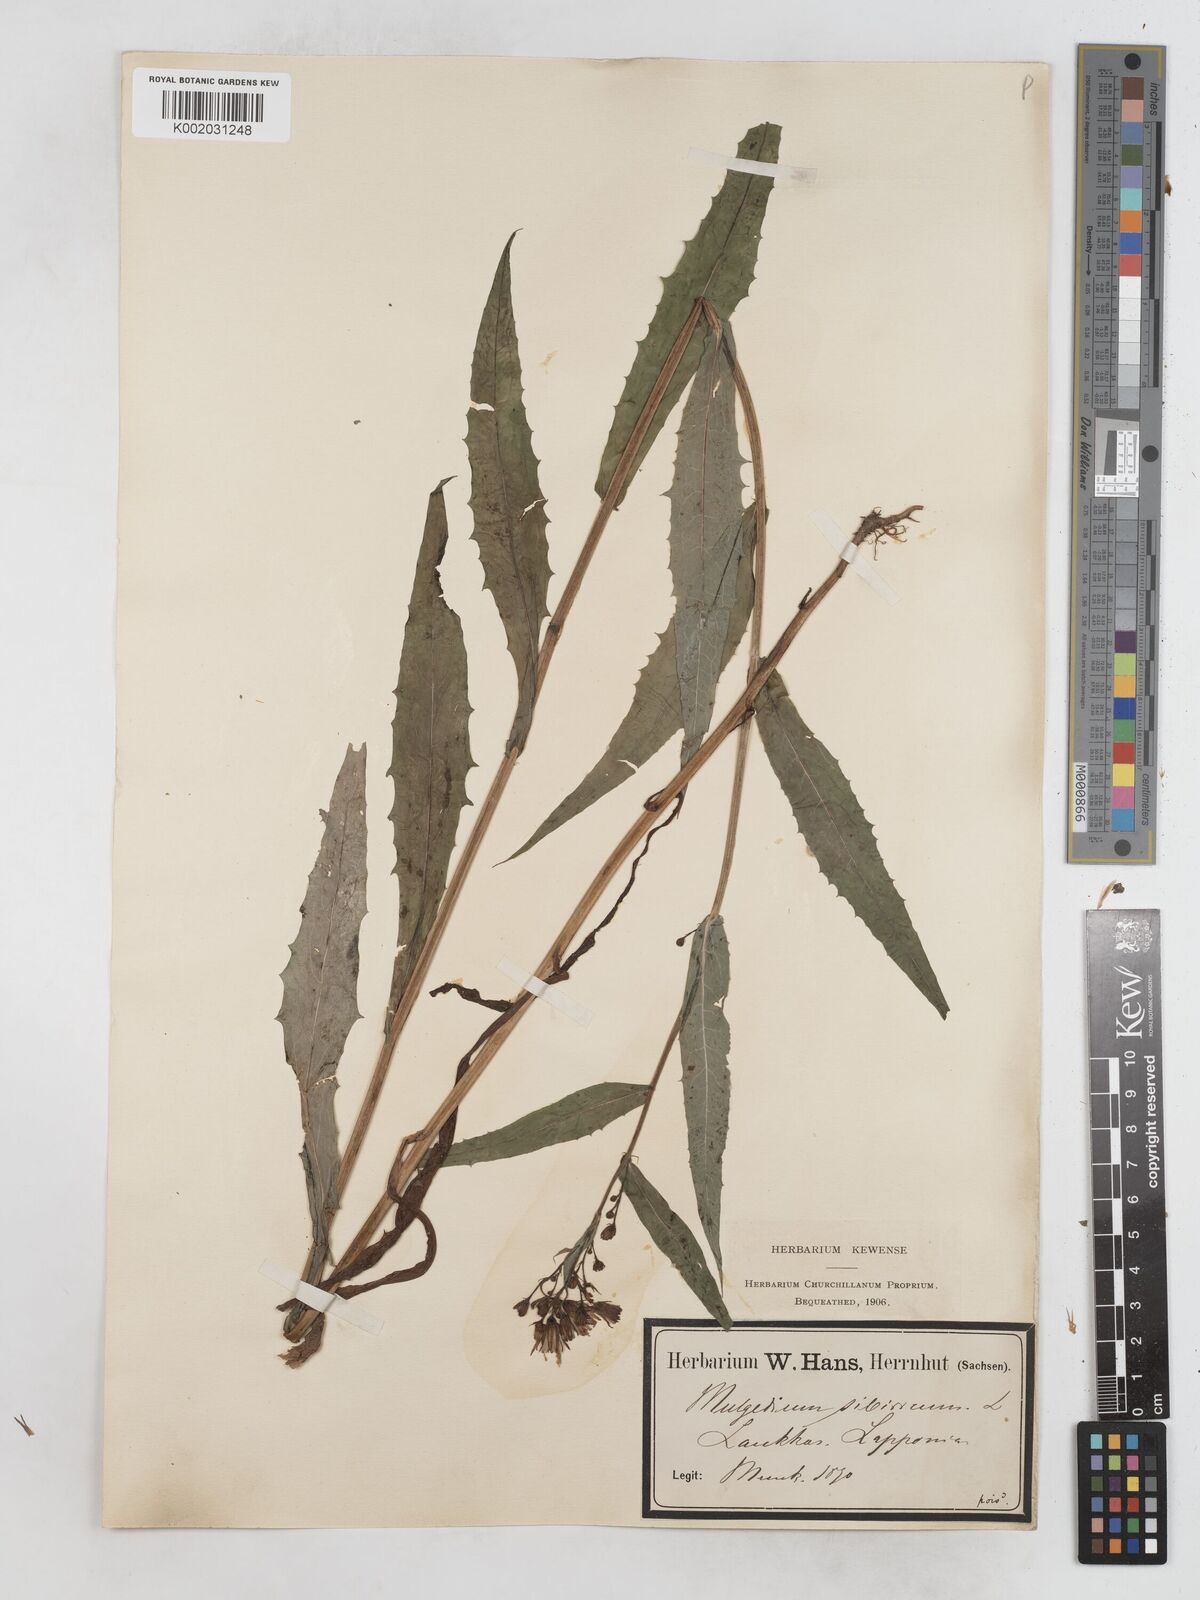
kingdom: Plantae
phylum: Tracheophyta
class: Magnoliopsida
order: Asterales
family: Asteraceae
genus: Lactuca
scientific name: Lactuca sibirica
